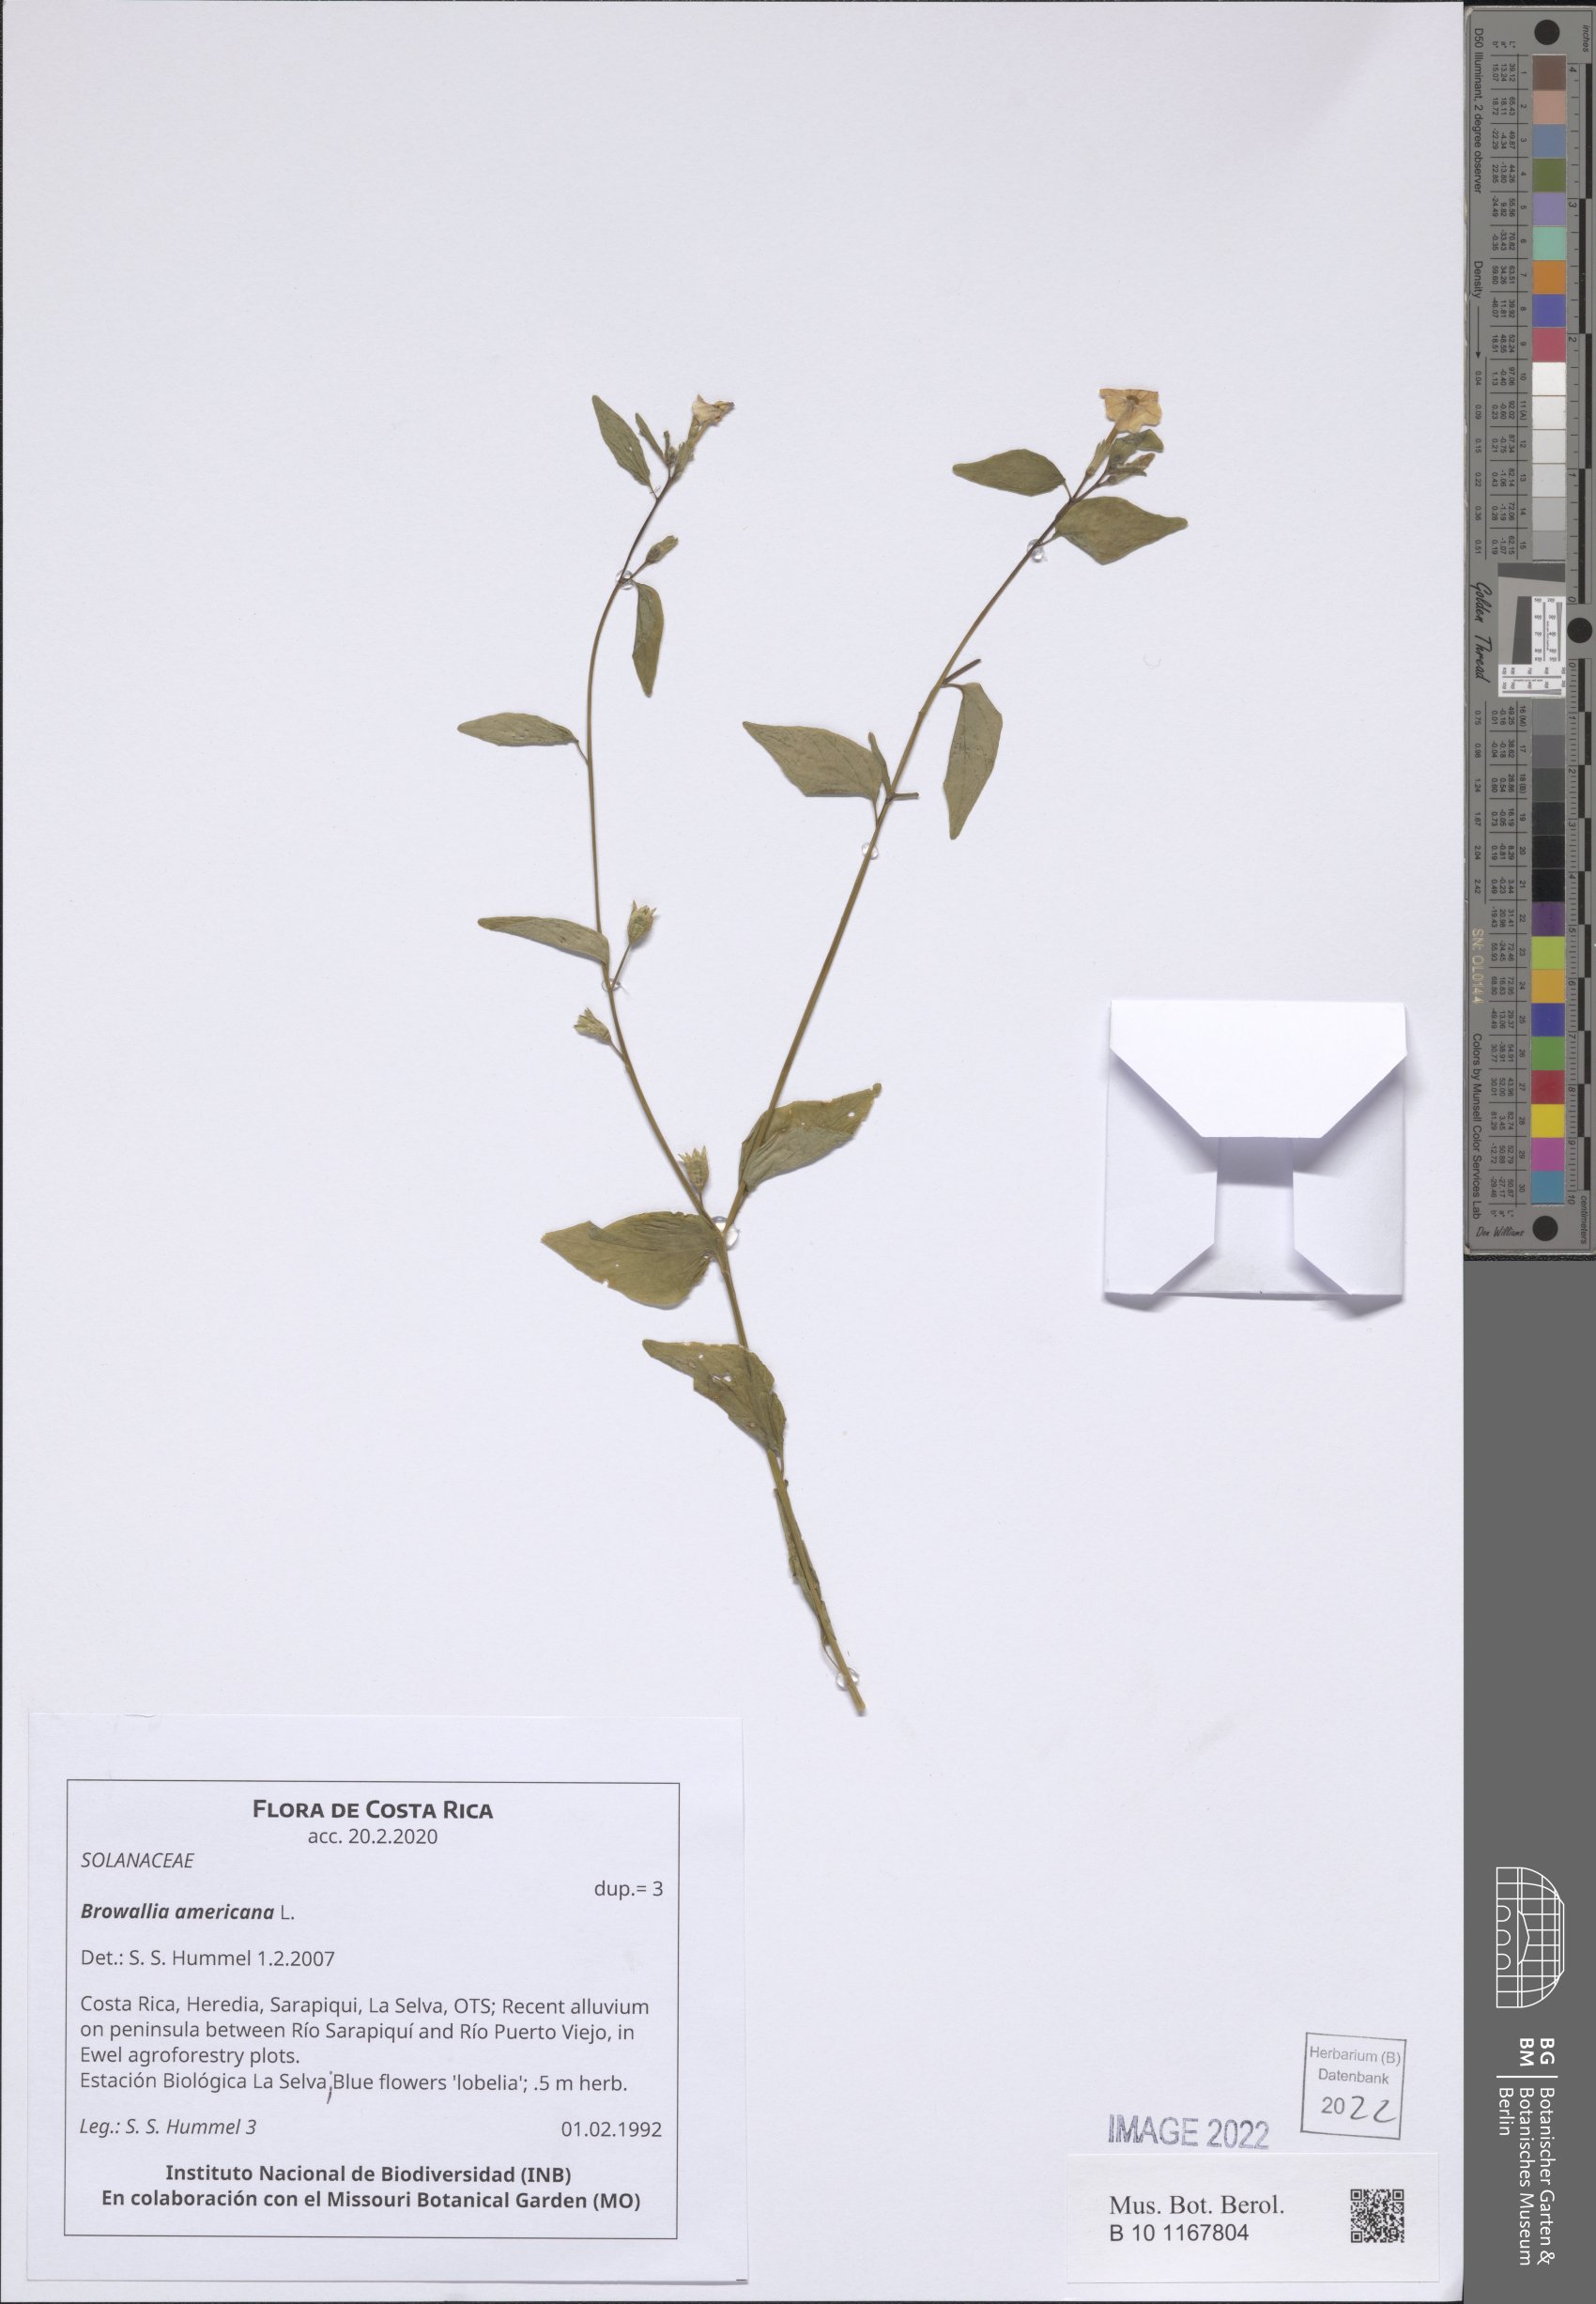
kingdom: Plantae
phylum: Tracheophyta
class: Magnoliopsida
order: Solanales
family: Solanaceae
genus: Browallia
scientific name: Browallia americana
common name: Jamaican forget-me-not
